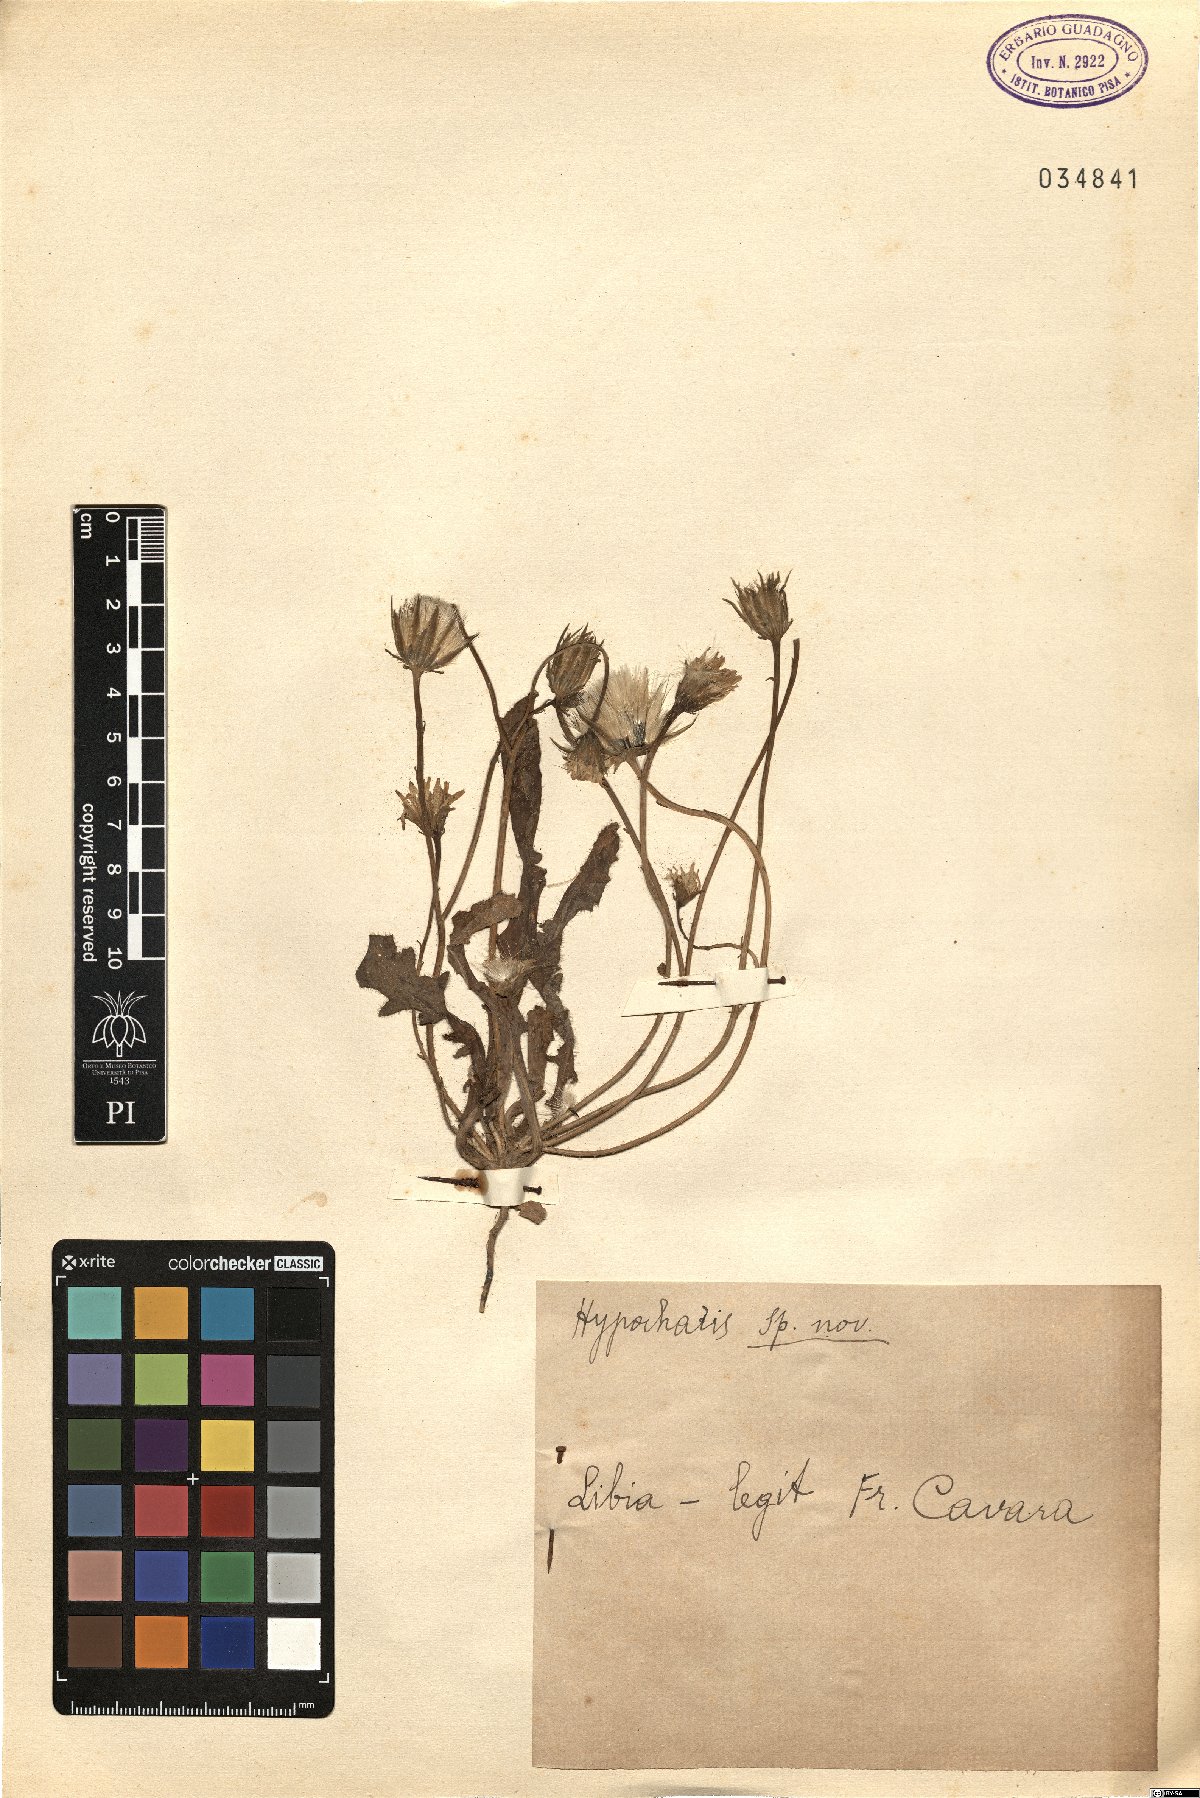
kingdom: Plantae
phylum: Tracheophyta
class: Magnoliopsida
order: Asterales
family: Asteraceae
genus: Hypochaeris
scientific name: Hypochaeris
